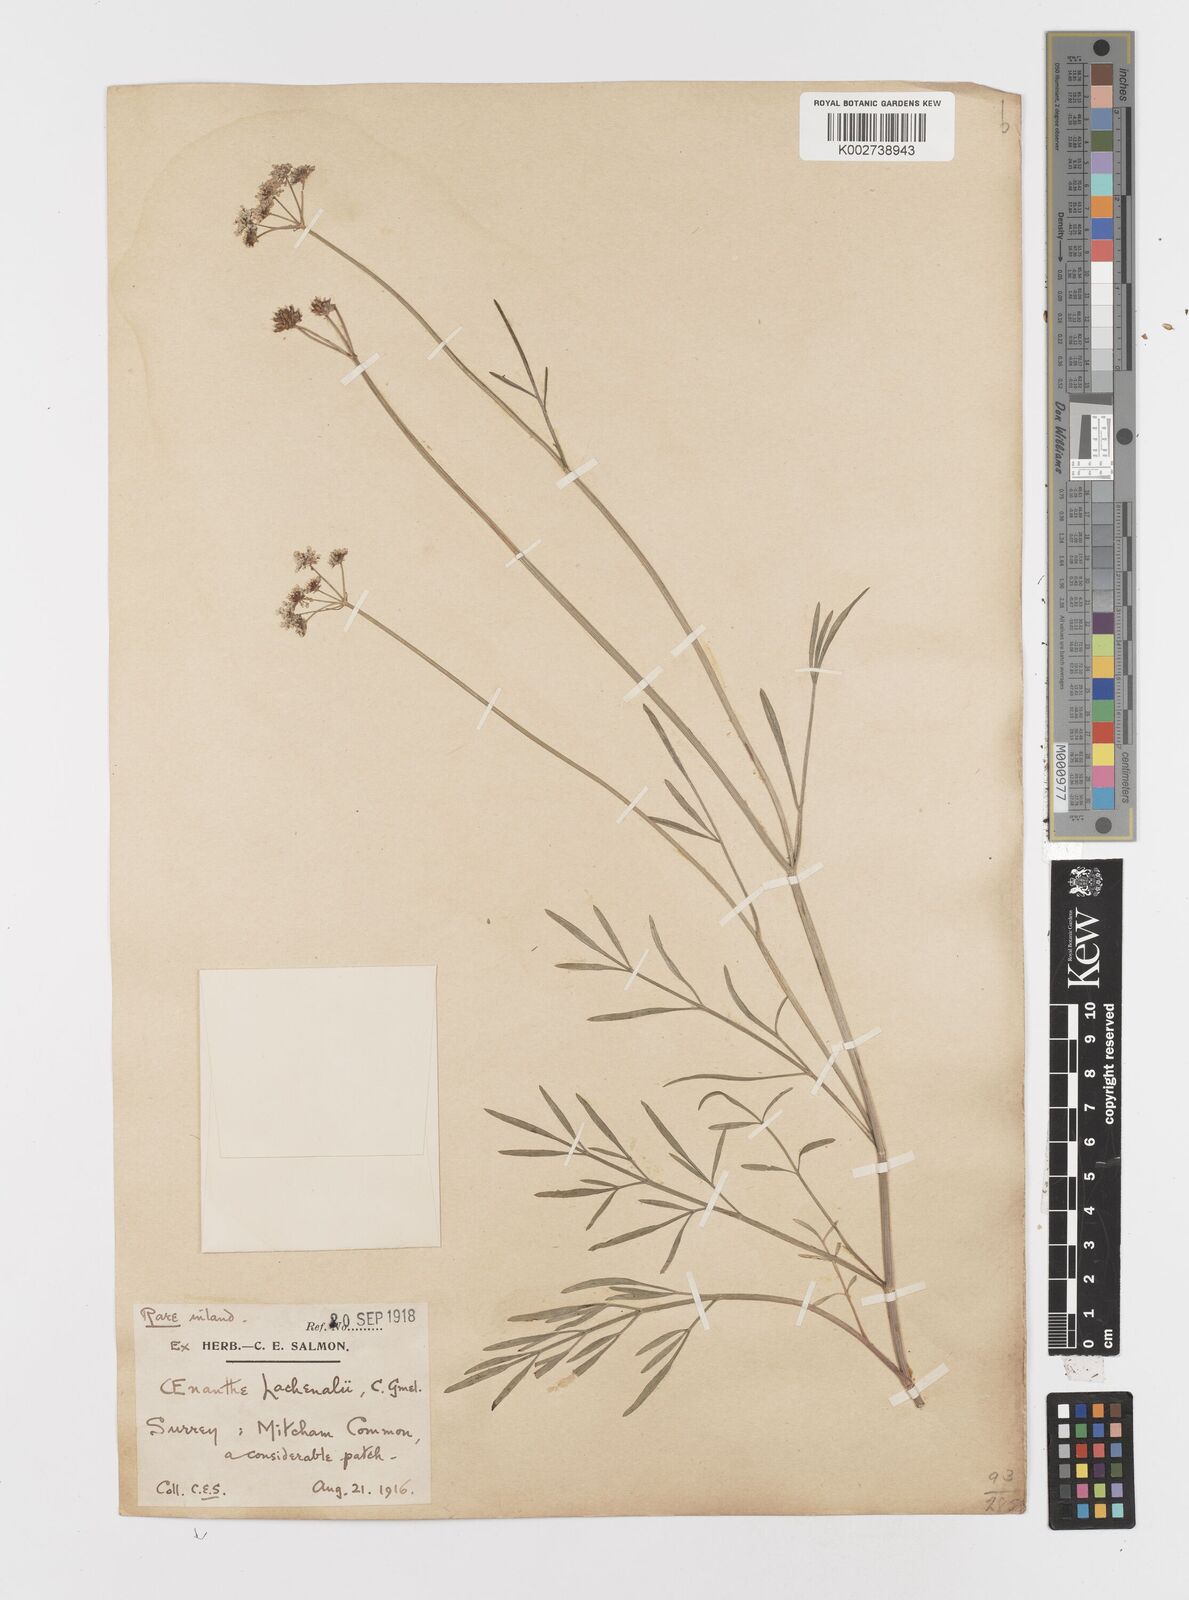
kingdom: Plantae
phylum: Tracheophyta
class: Magnoliopsida
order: Apiales
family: Apiaceae
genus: Oenanthe
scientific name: Oenanthe lachenalii
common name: Parsley water-dropwort
